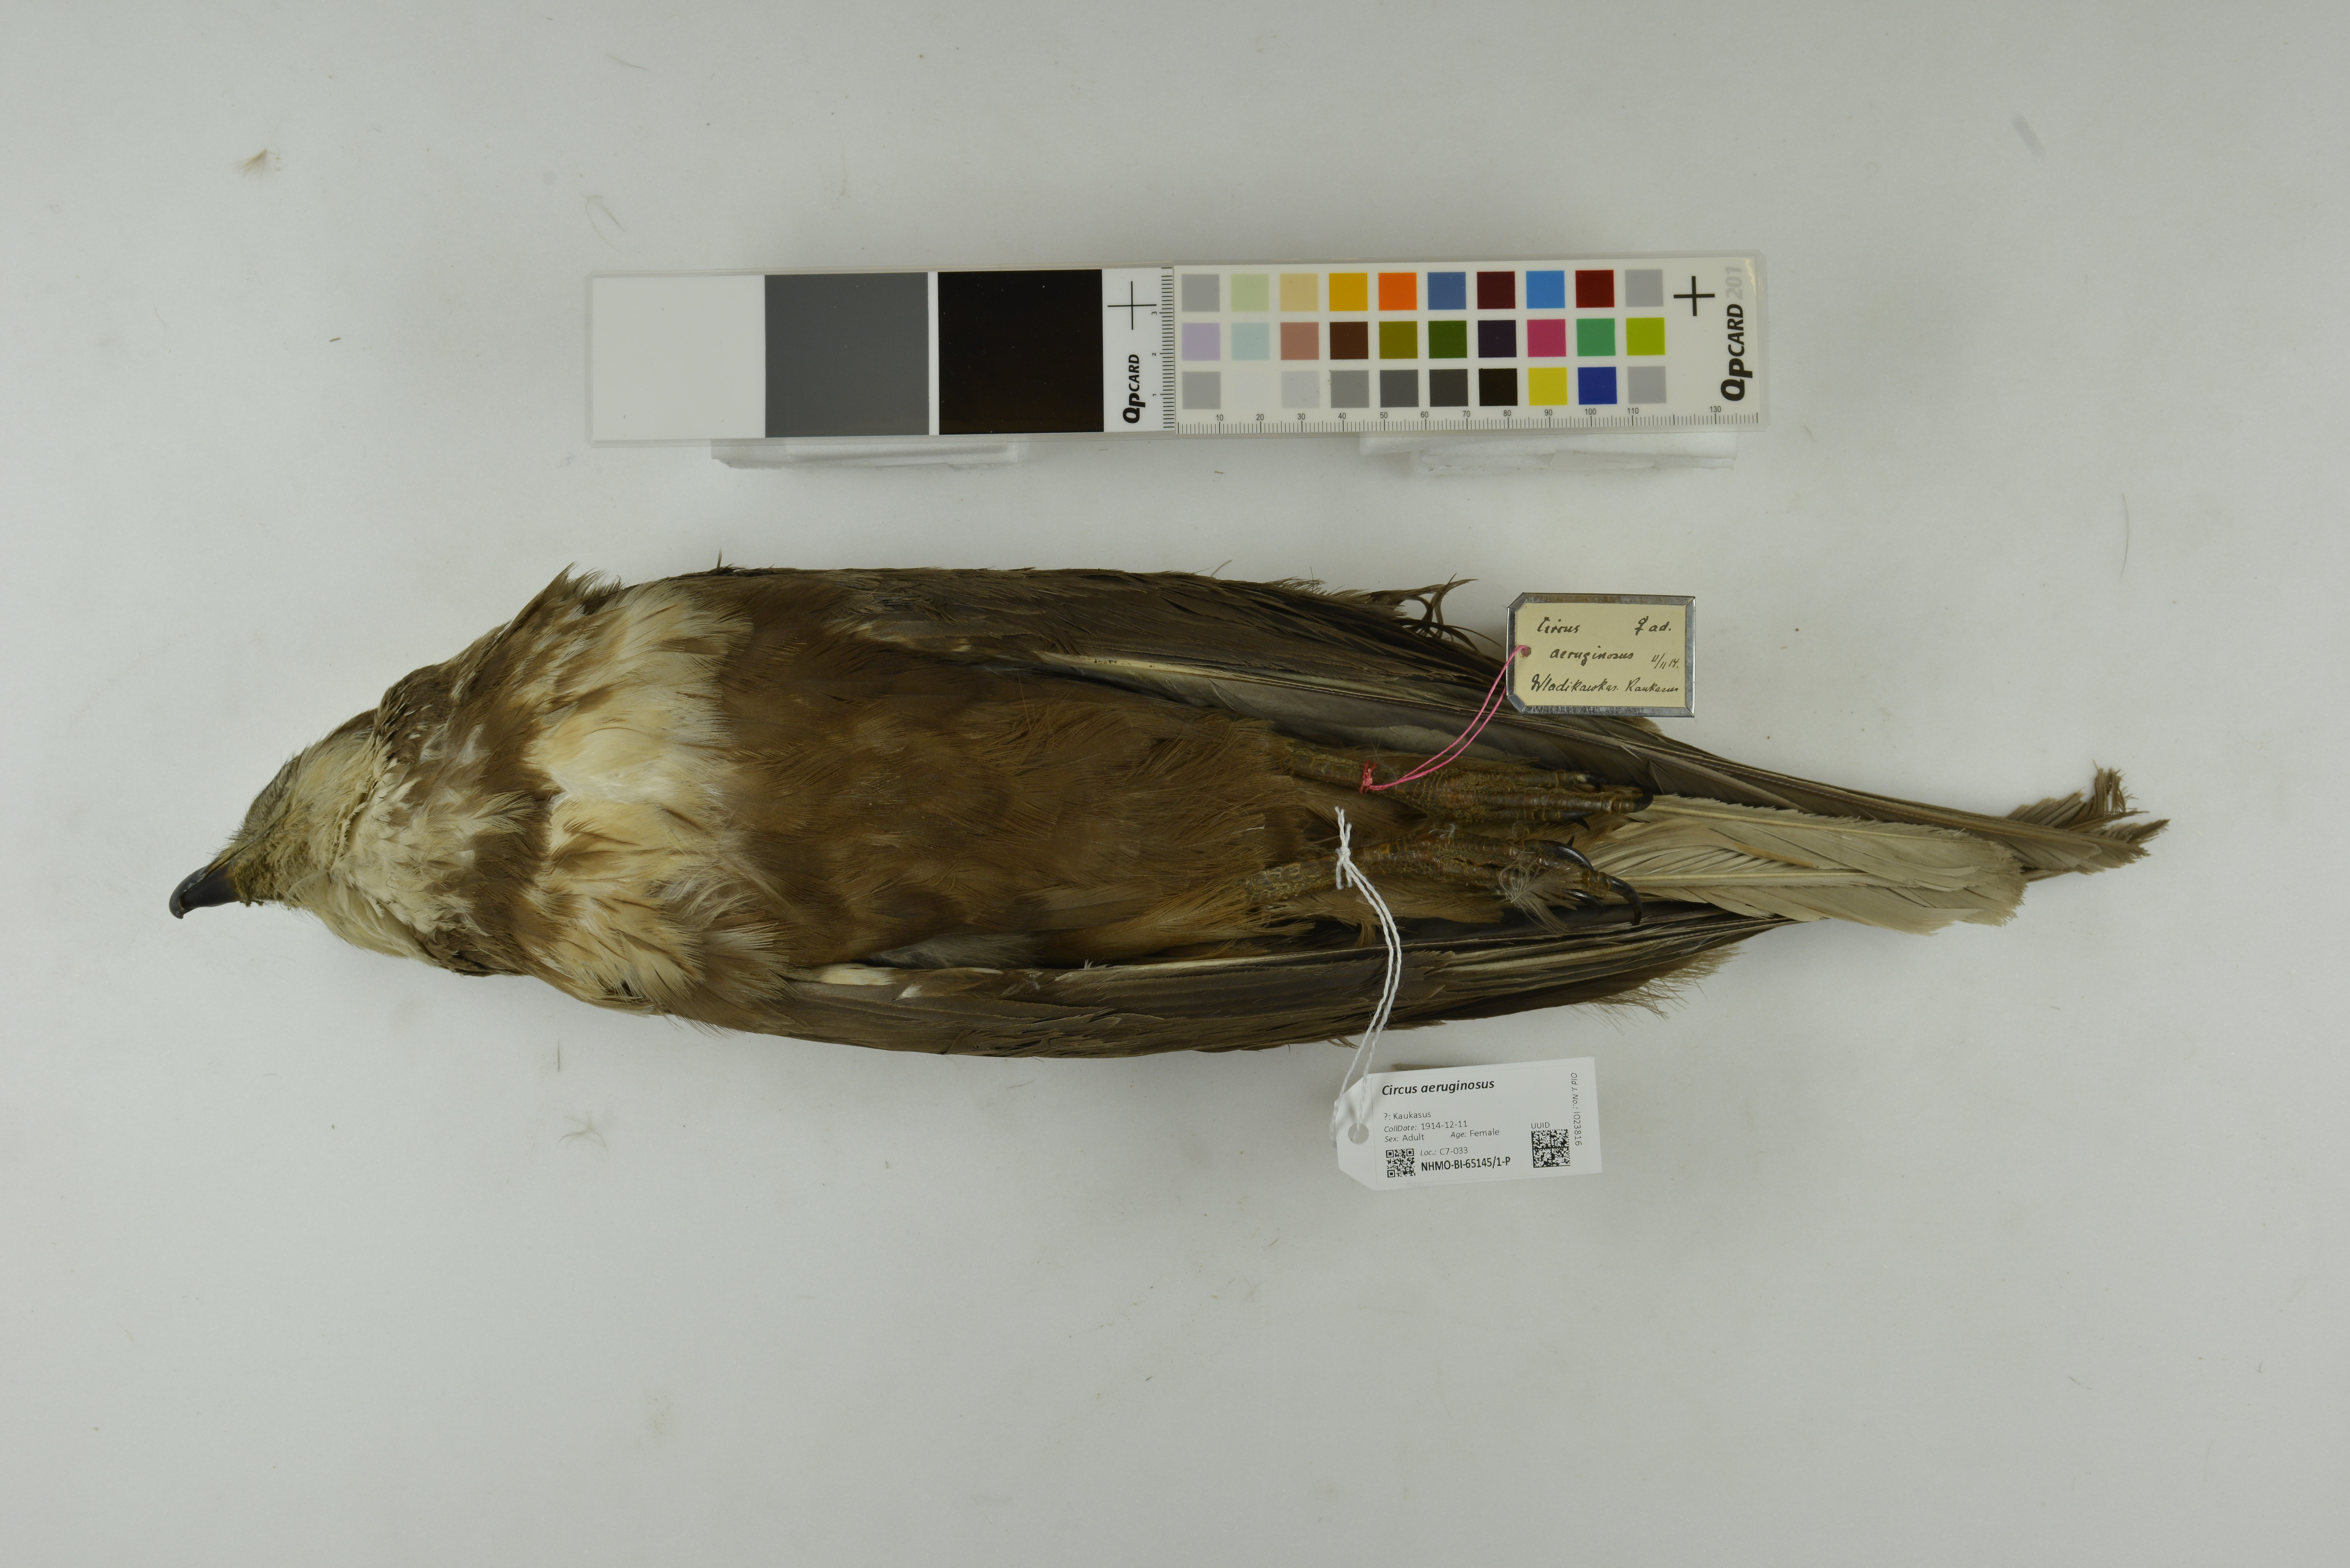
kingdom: Animalia
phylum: Chordata
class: Aves
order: Accipitriformes
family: Accipitridae
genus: Circus
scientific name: Circus aeruginosus
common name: Western marsh harrier
